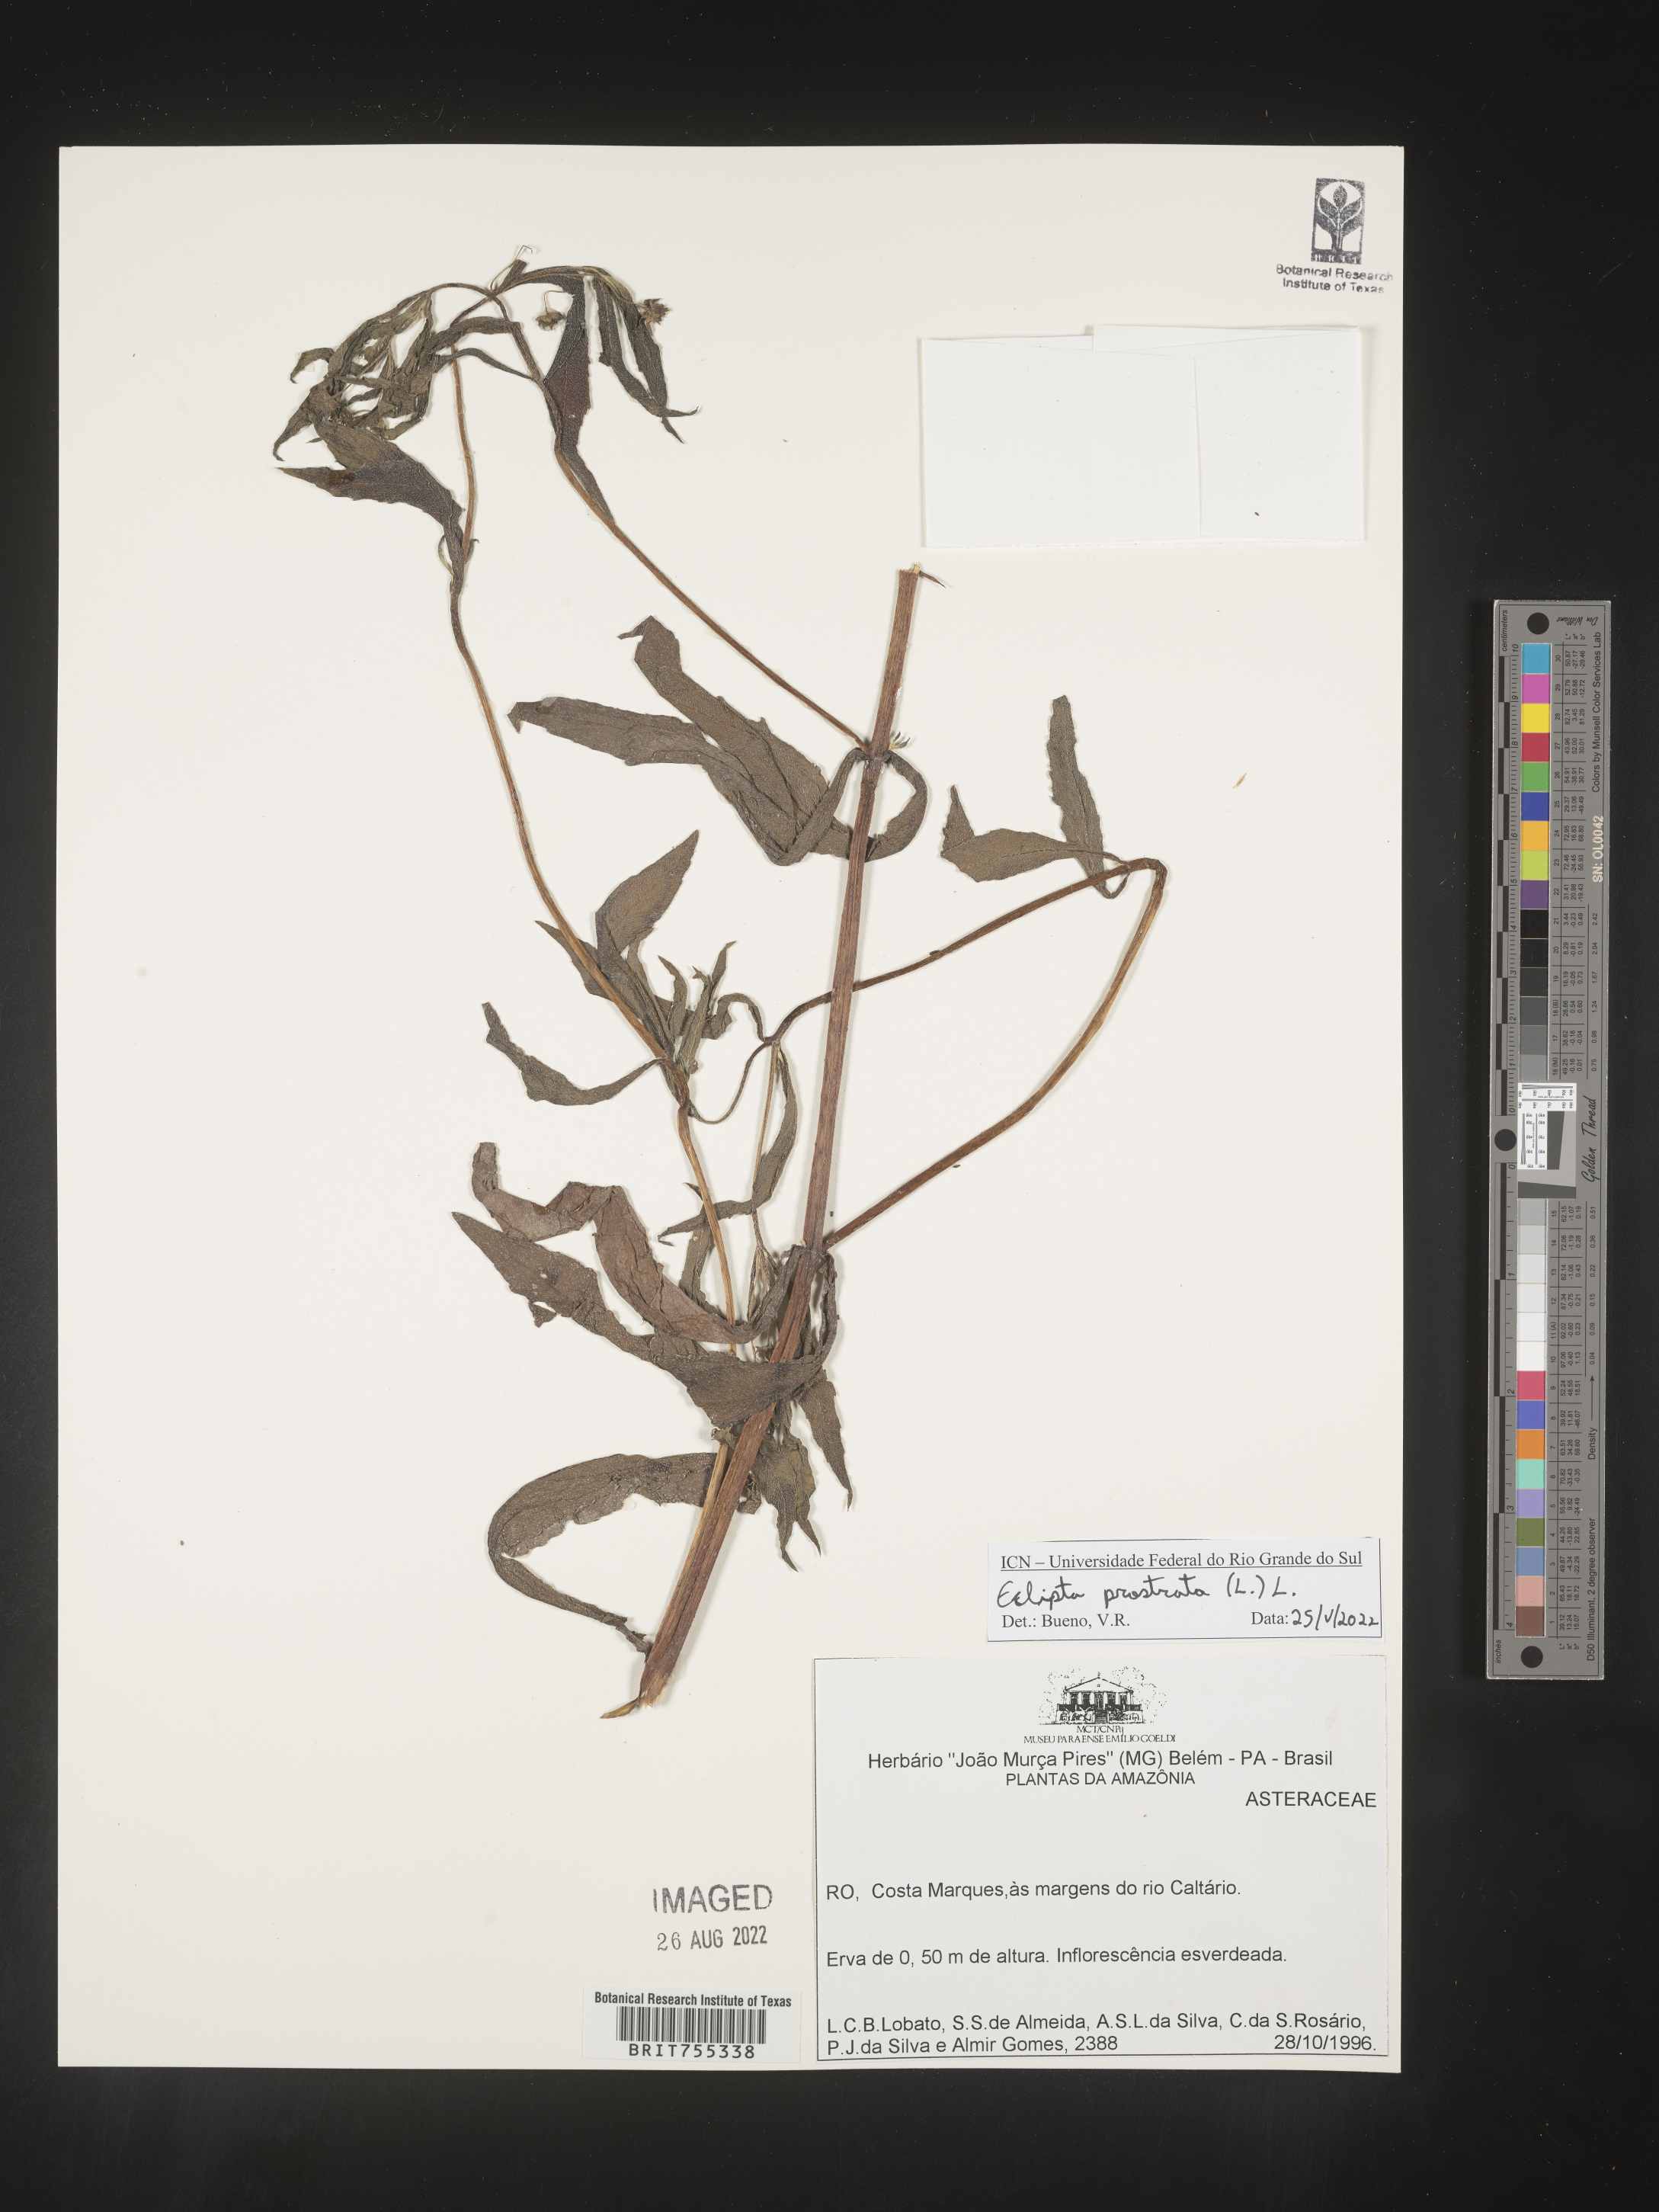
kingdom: Plantae
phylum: Tracheophyta
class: Magnoliopsida
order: Asterales
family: Asteraceae
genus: Eclipta
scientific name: Eclipta prostrata
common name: False daisy
